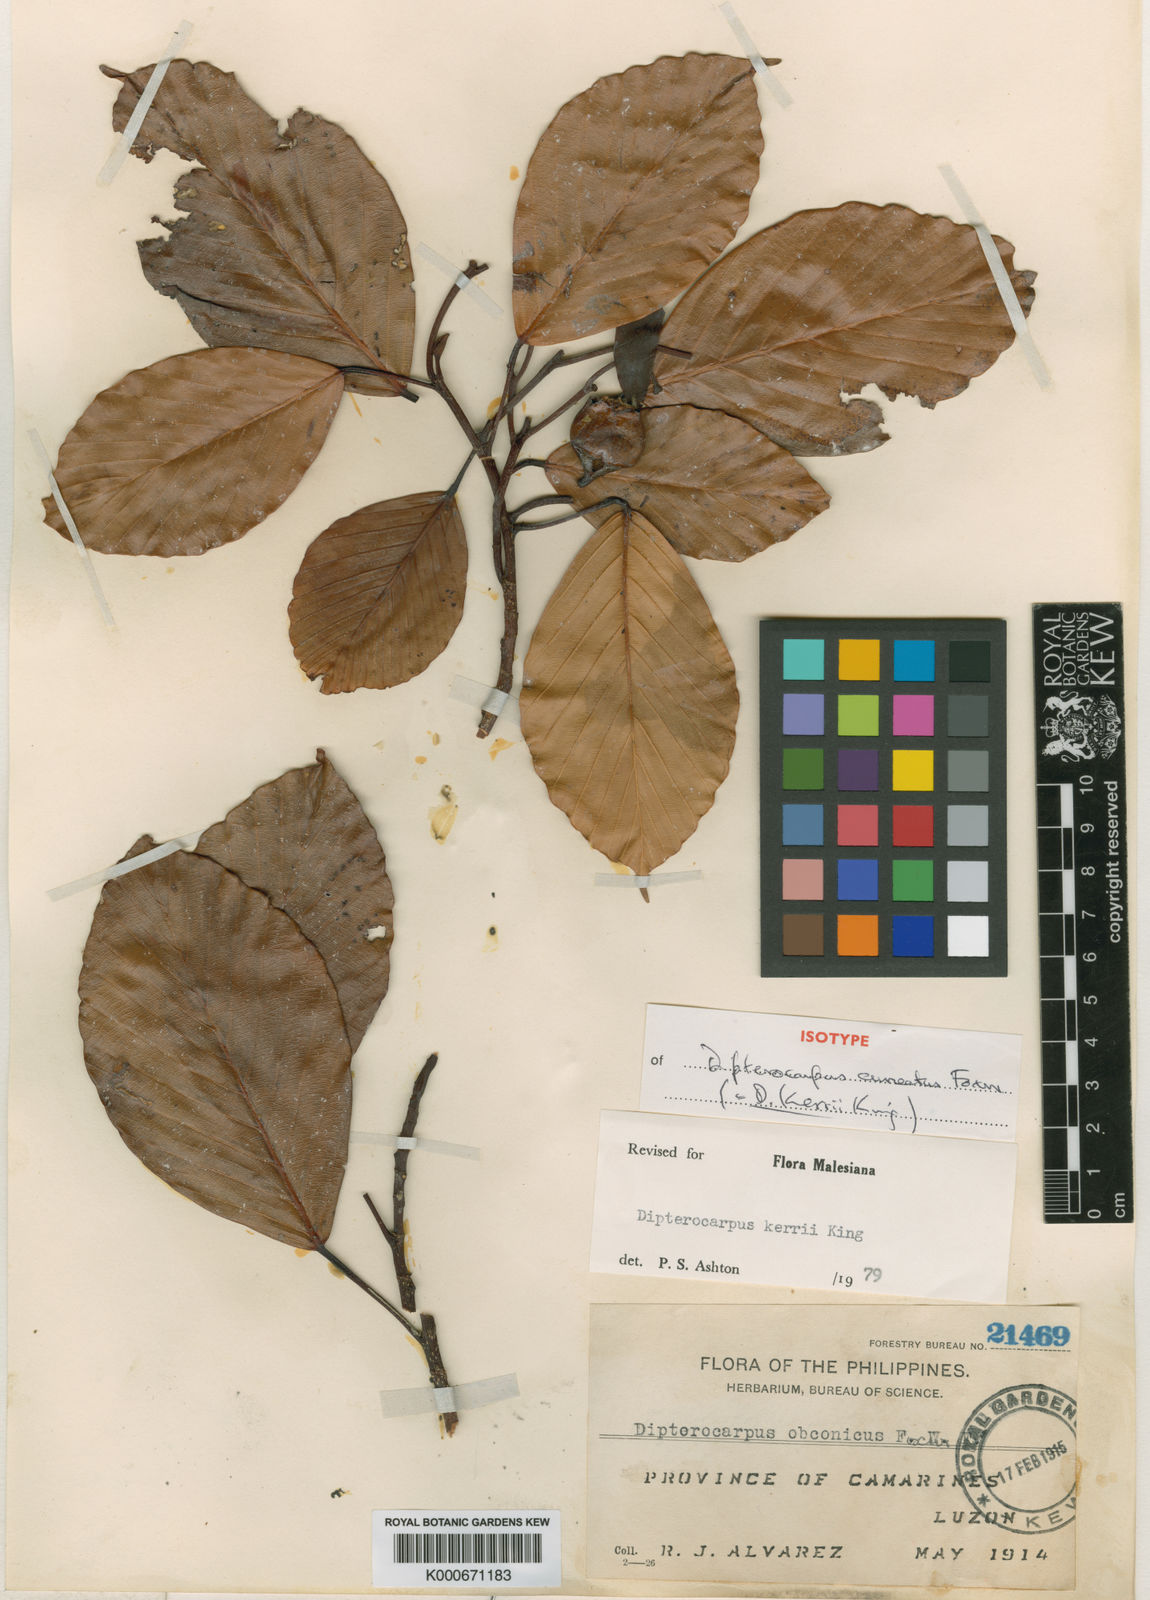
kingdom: Plantae
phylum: Tracheophyta
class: Magnoliopsida
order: Malvales
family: Dipterocarpaceae
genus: Dipterocarpus
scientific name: Dipterocarpus kerrii
